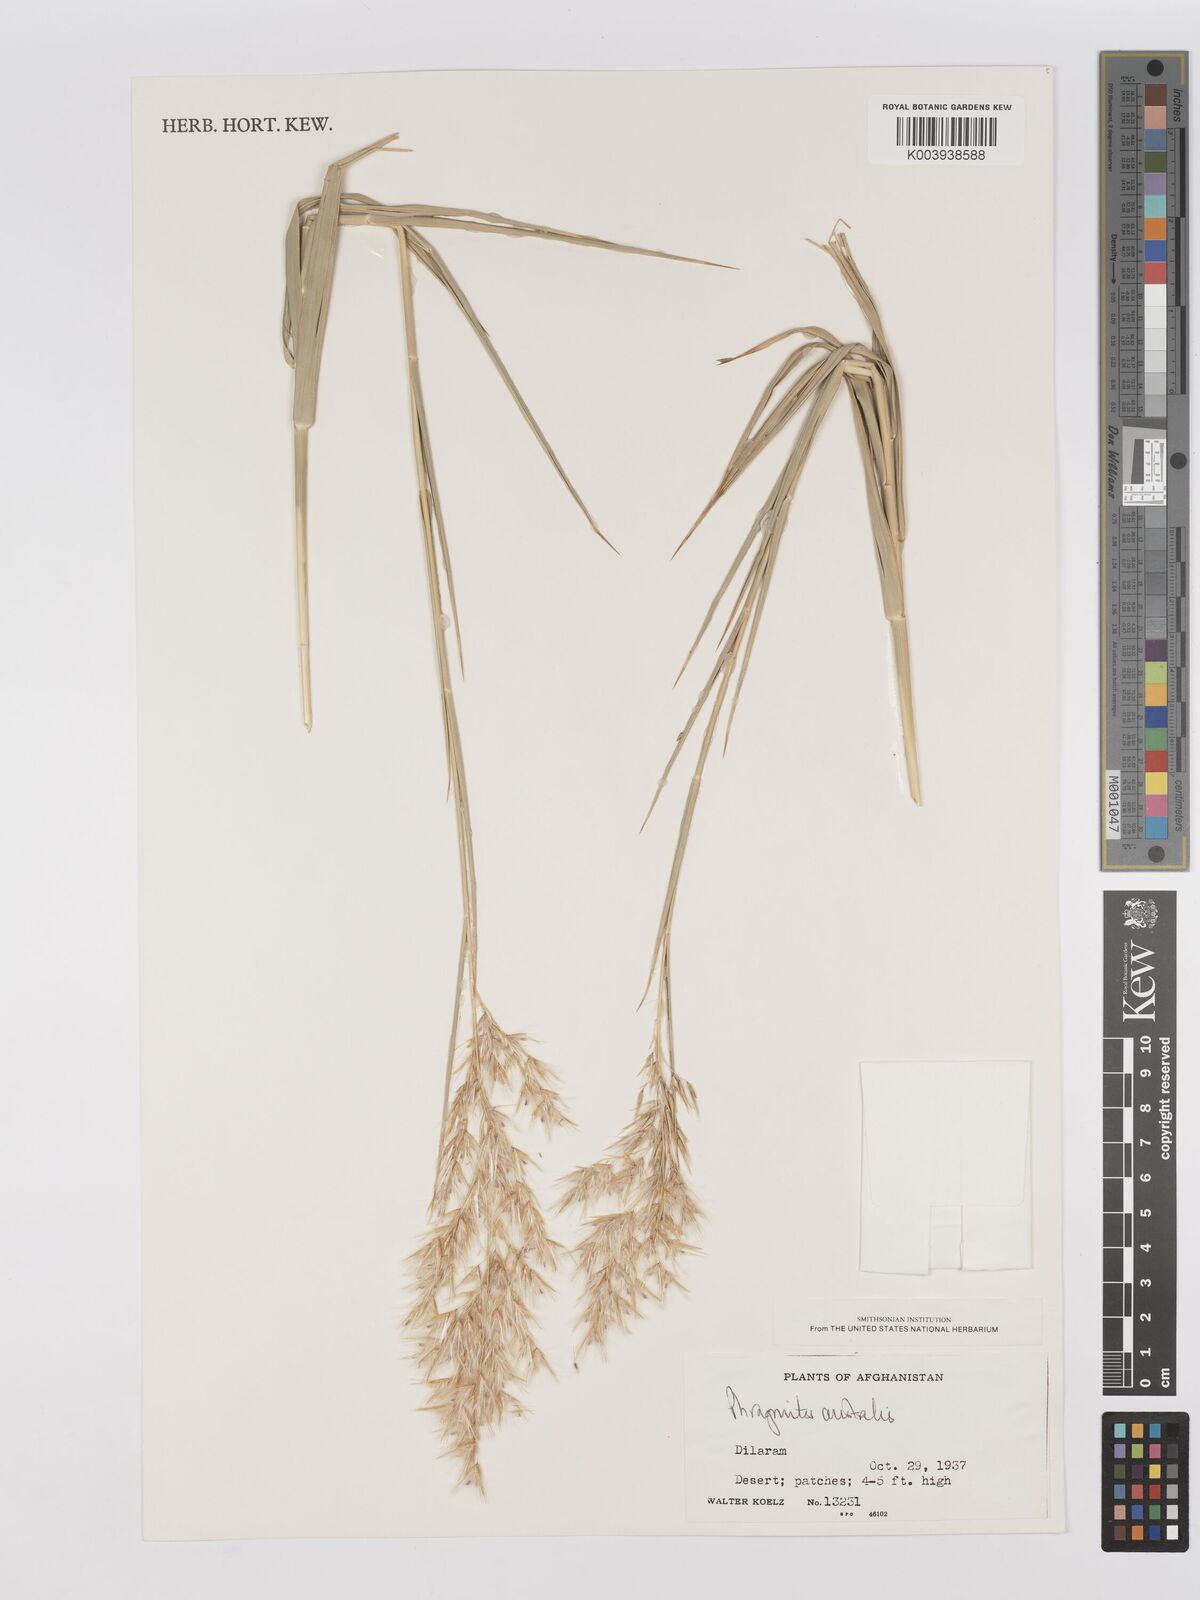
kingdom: Plantae
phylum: Tracheophyta
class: Liliopsida
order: Poales
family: Poaceae
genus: Phragmites
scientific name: Phragmites australis
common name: Common reed
